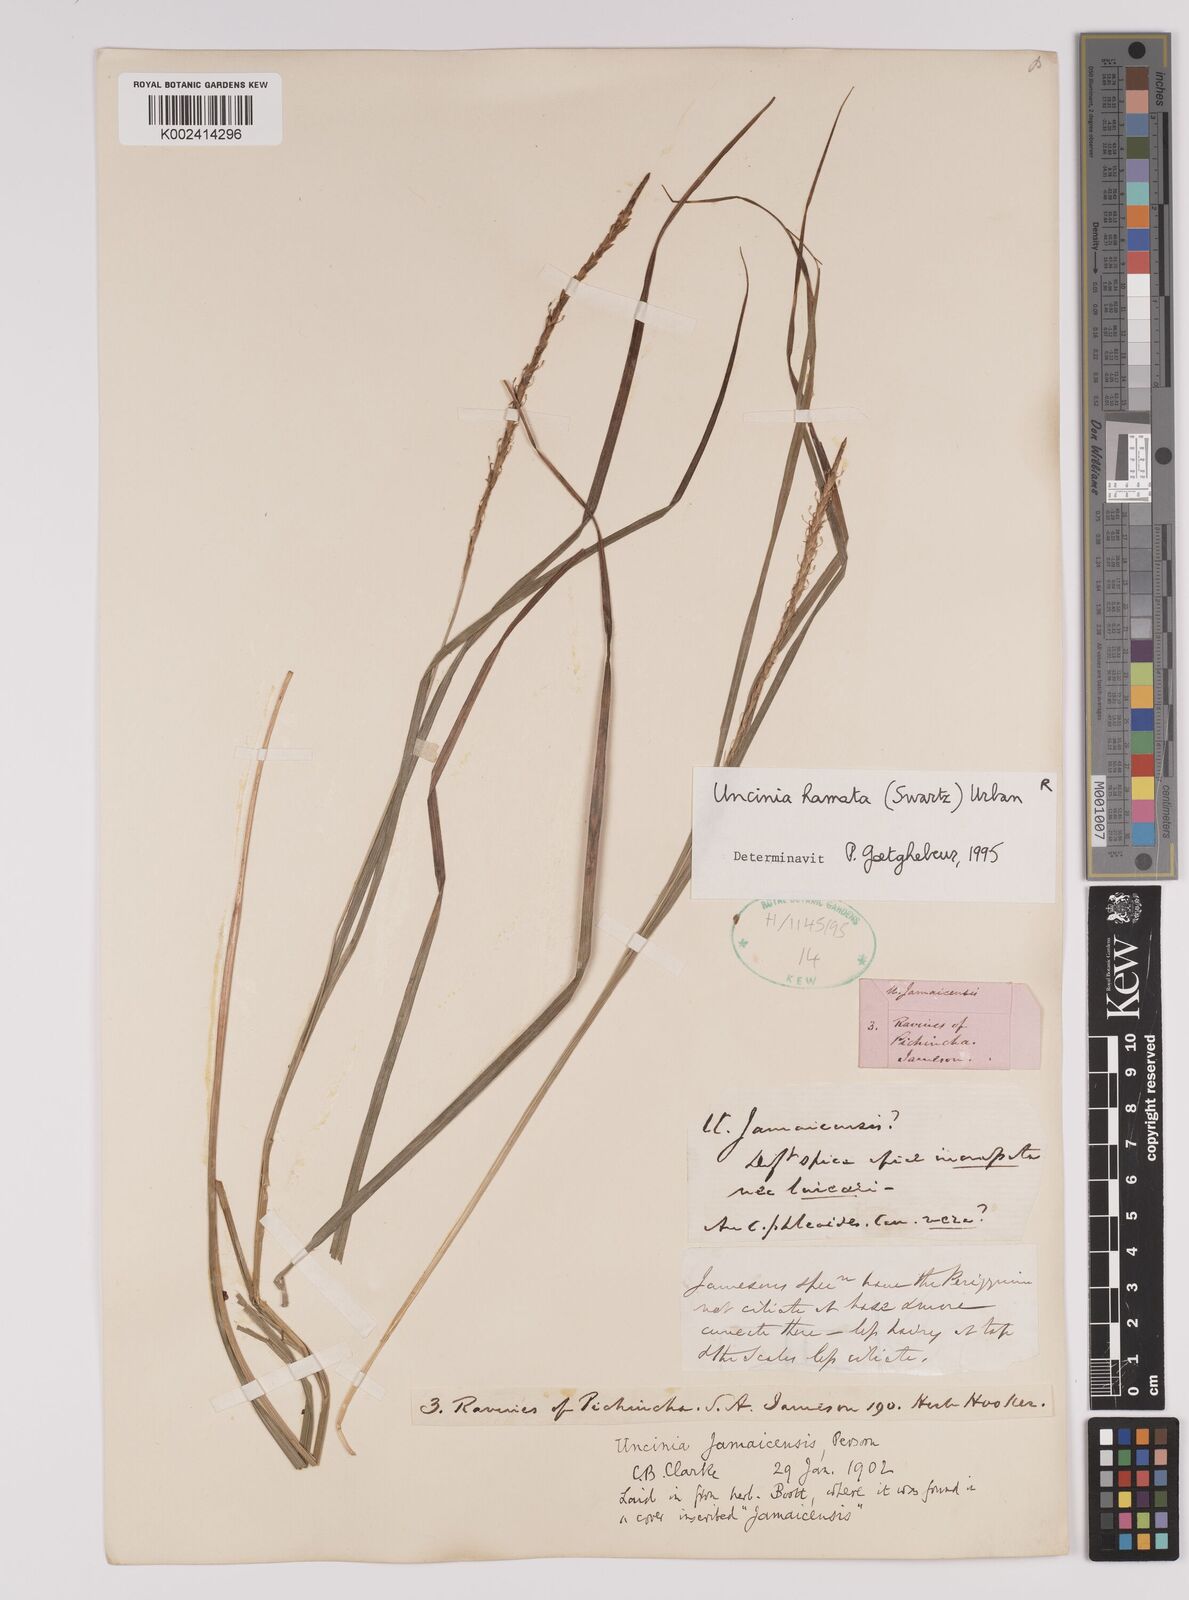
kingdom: Plantae
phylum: Tracheophyta
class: Liliopsida
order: Poales
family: Cyperaceae
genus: Carex
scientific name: Carex hamata
